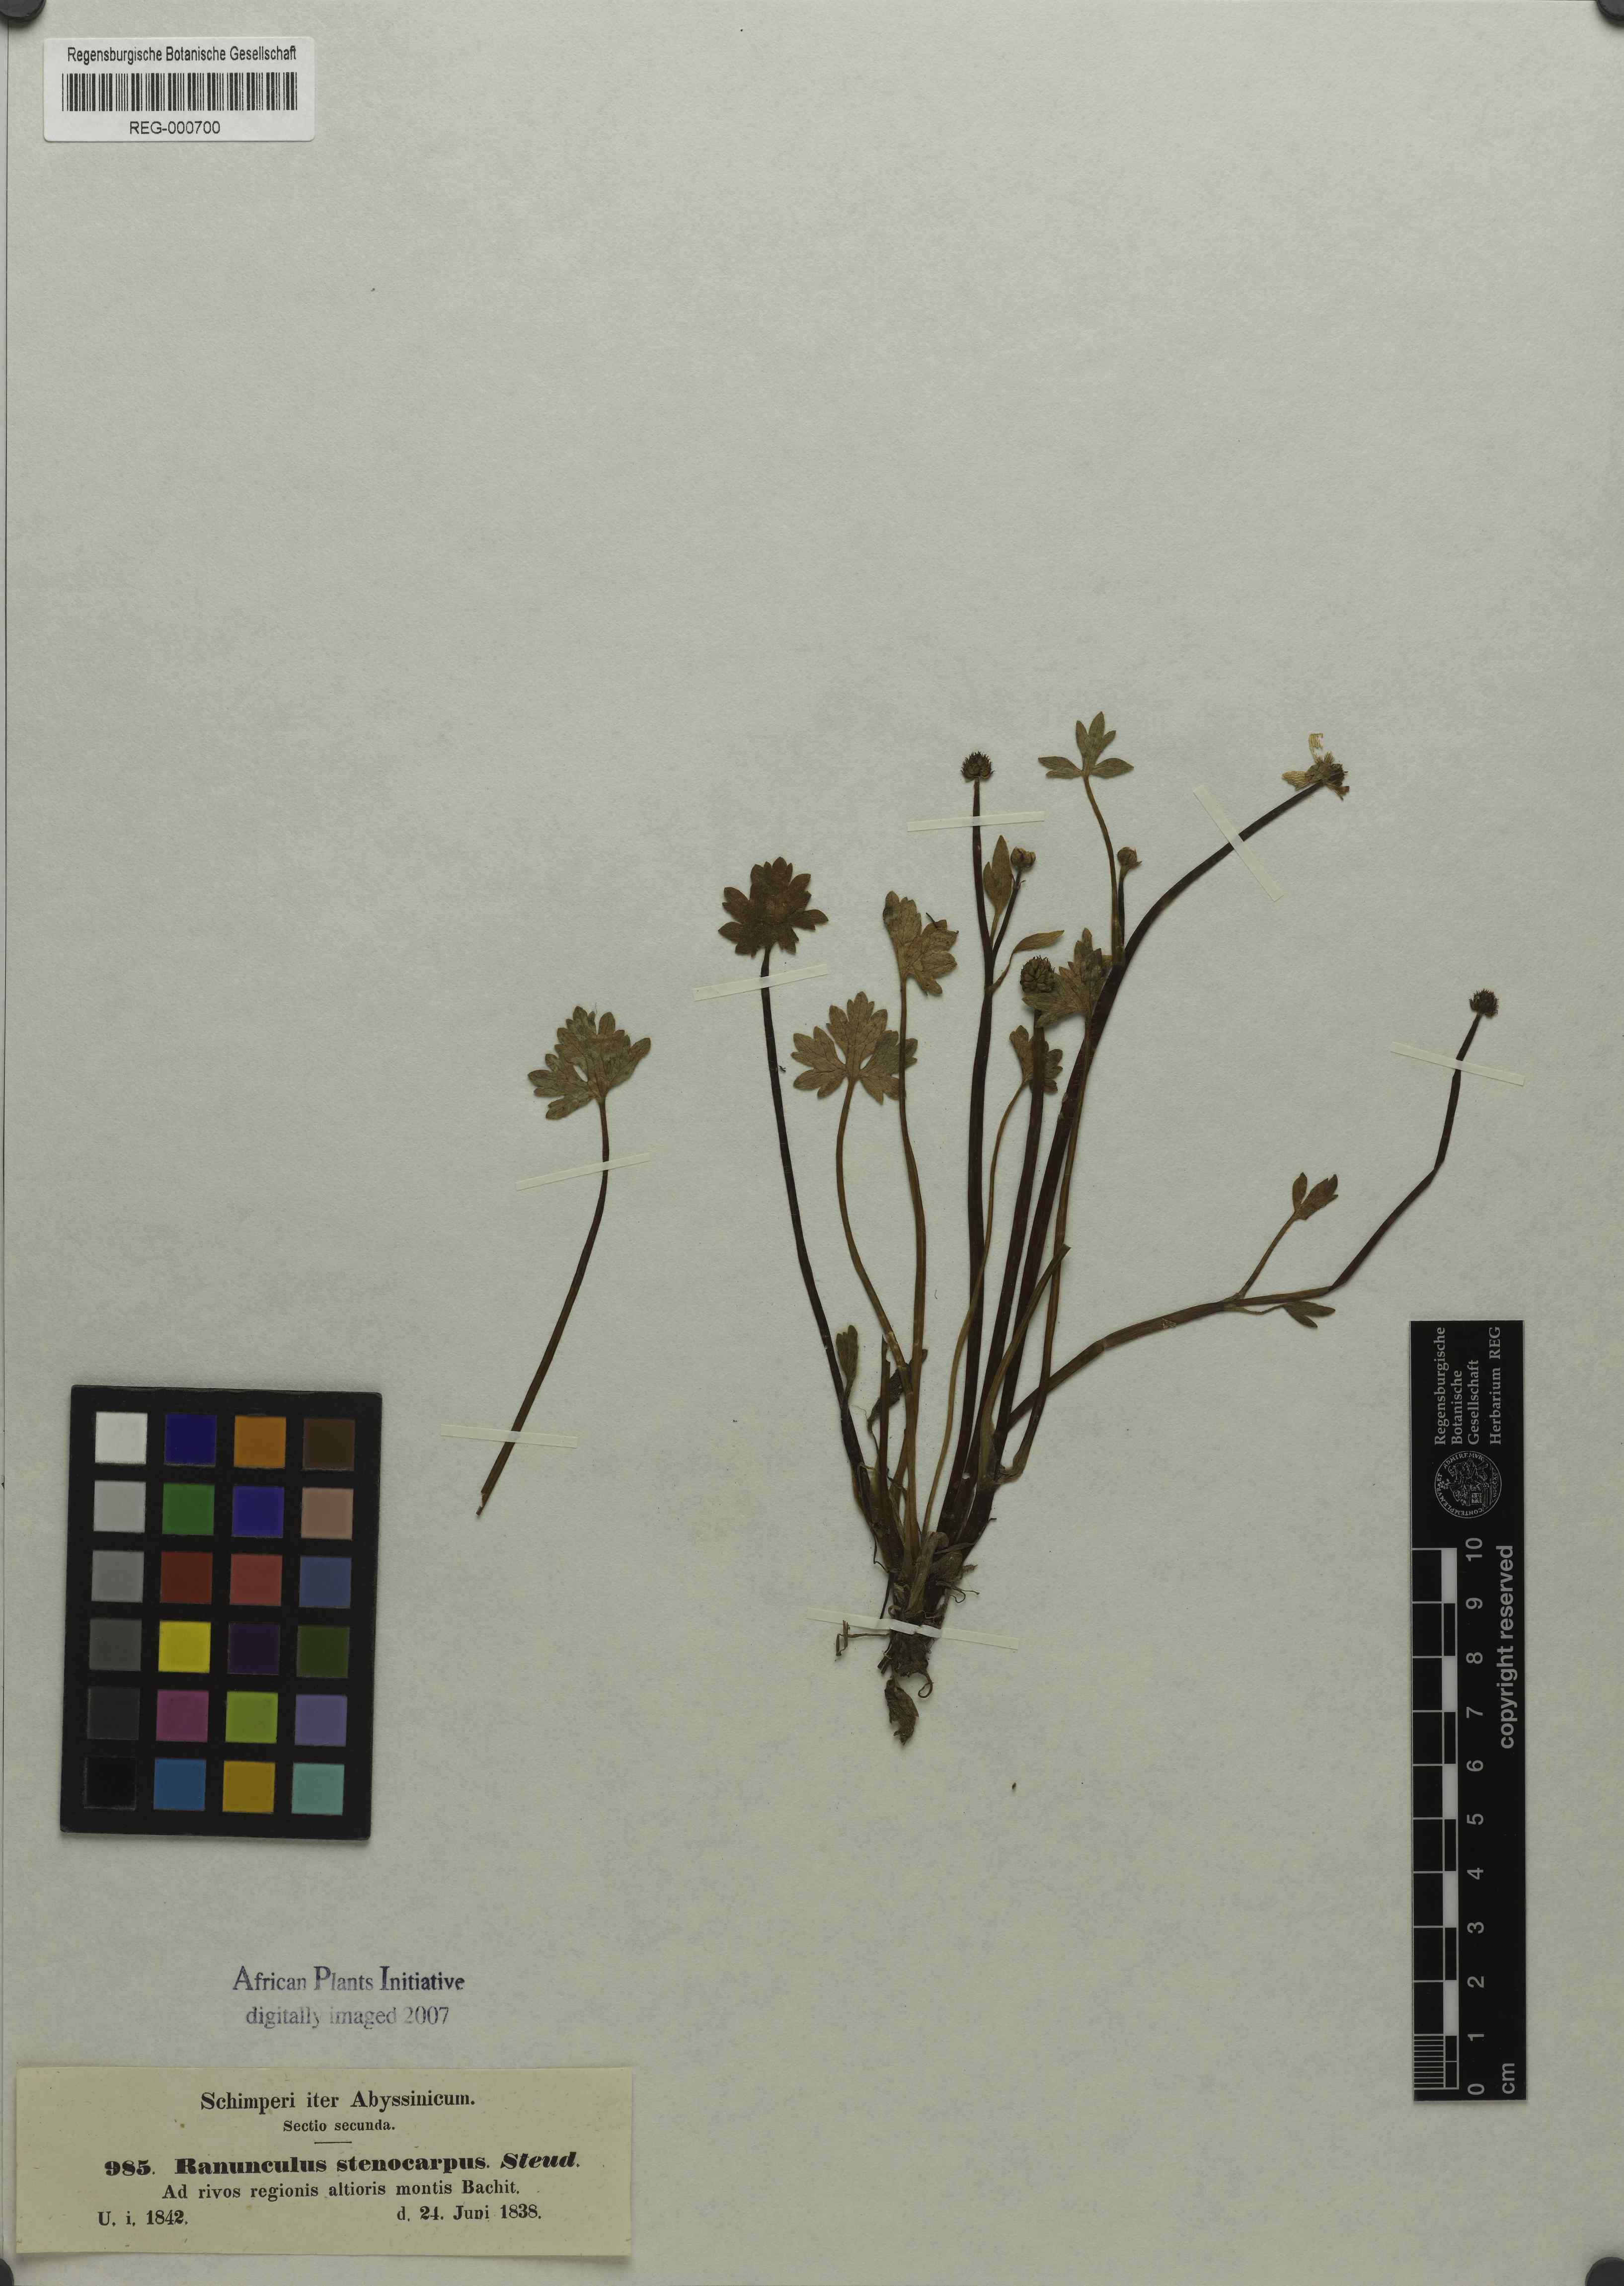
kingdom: Plantae
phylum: Tracheophyta
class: Magnoliopsida
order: Ranunculales
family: Ranunculaceae
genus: Ranunculus
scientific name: Ranunculus tembensis
